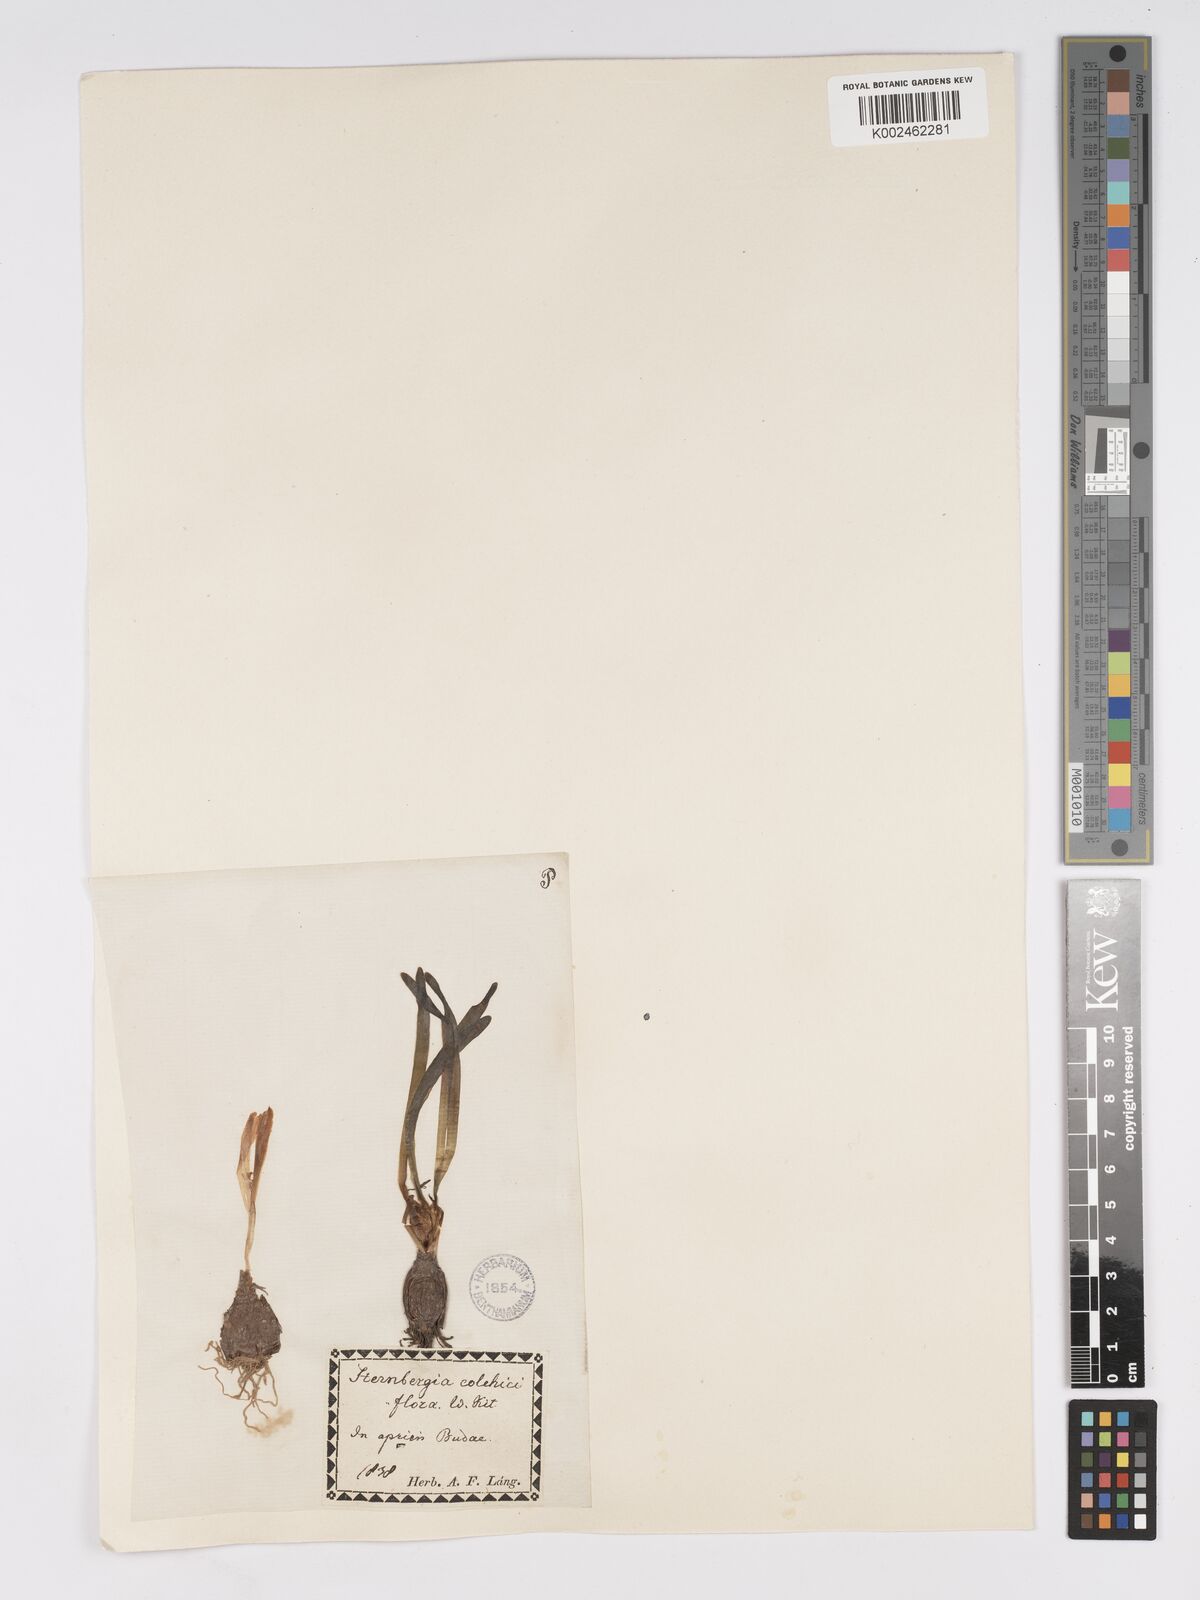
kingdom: Plantae
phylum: Tracheophyta
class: Liliopsida
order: Asparagales
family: Amaryllidaceae
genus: Sternbergia
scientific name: Sternbergia colchiciflora
